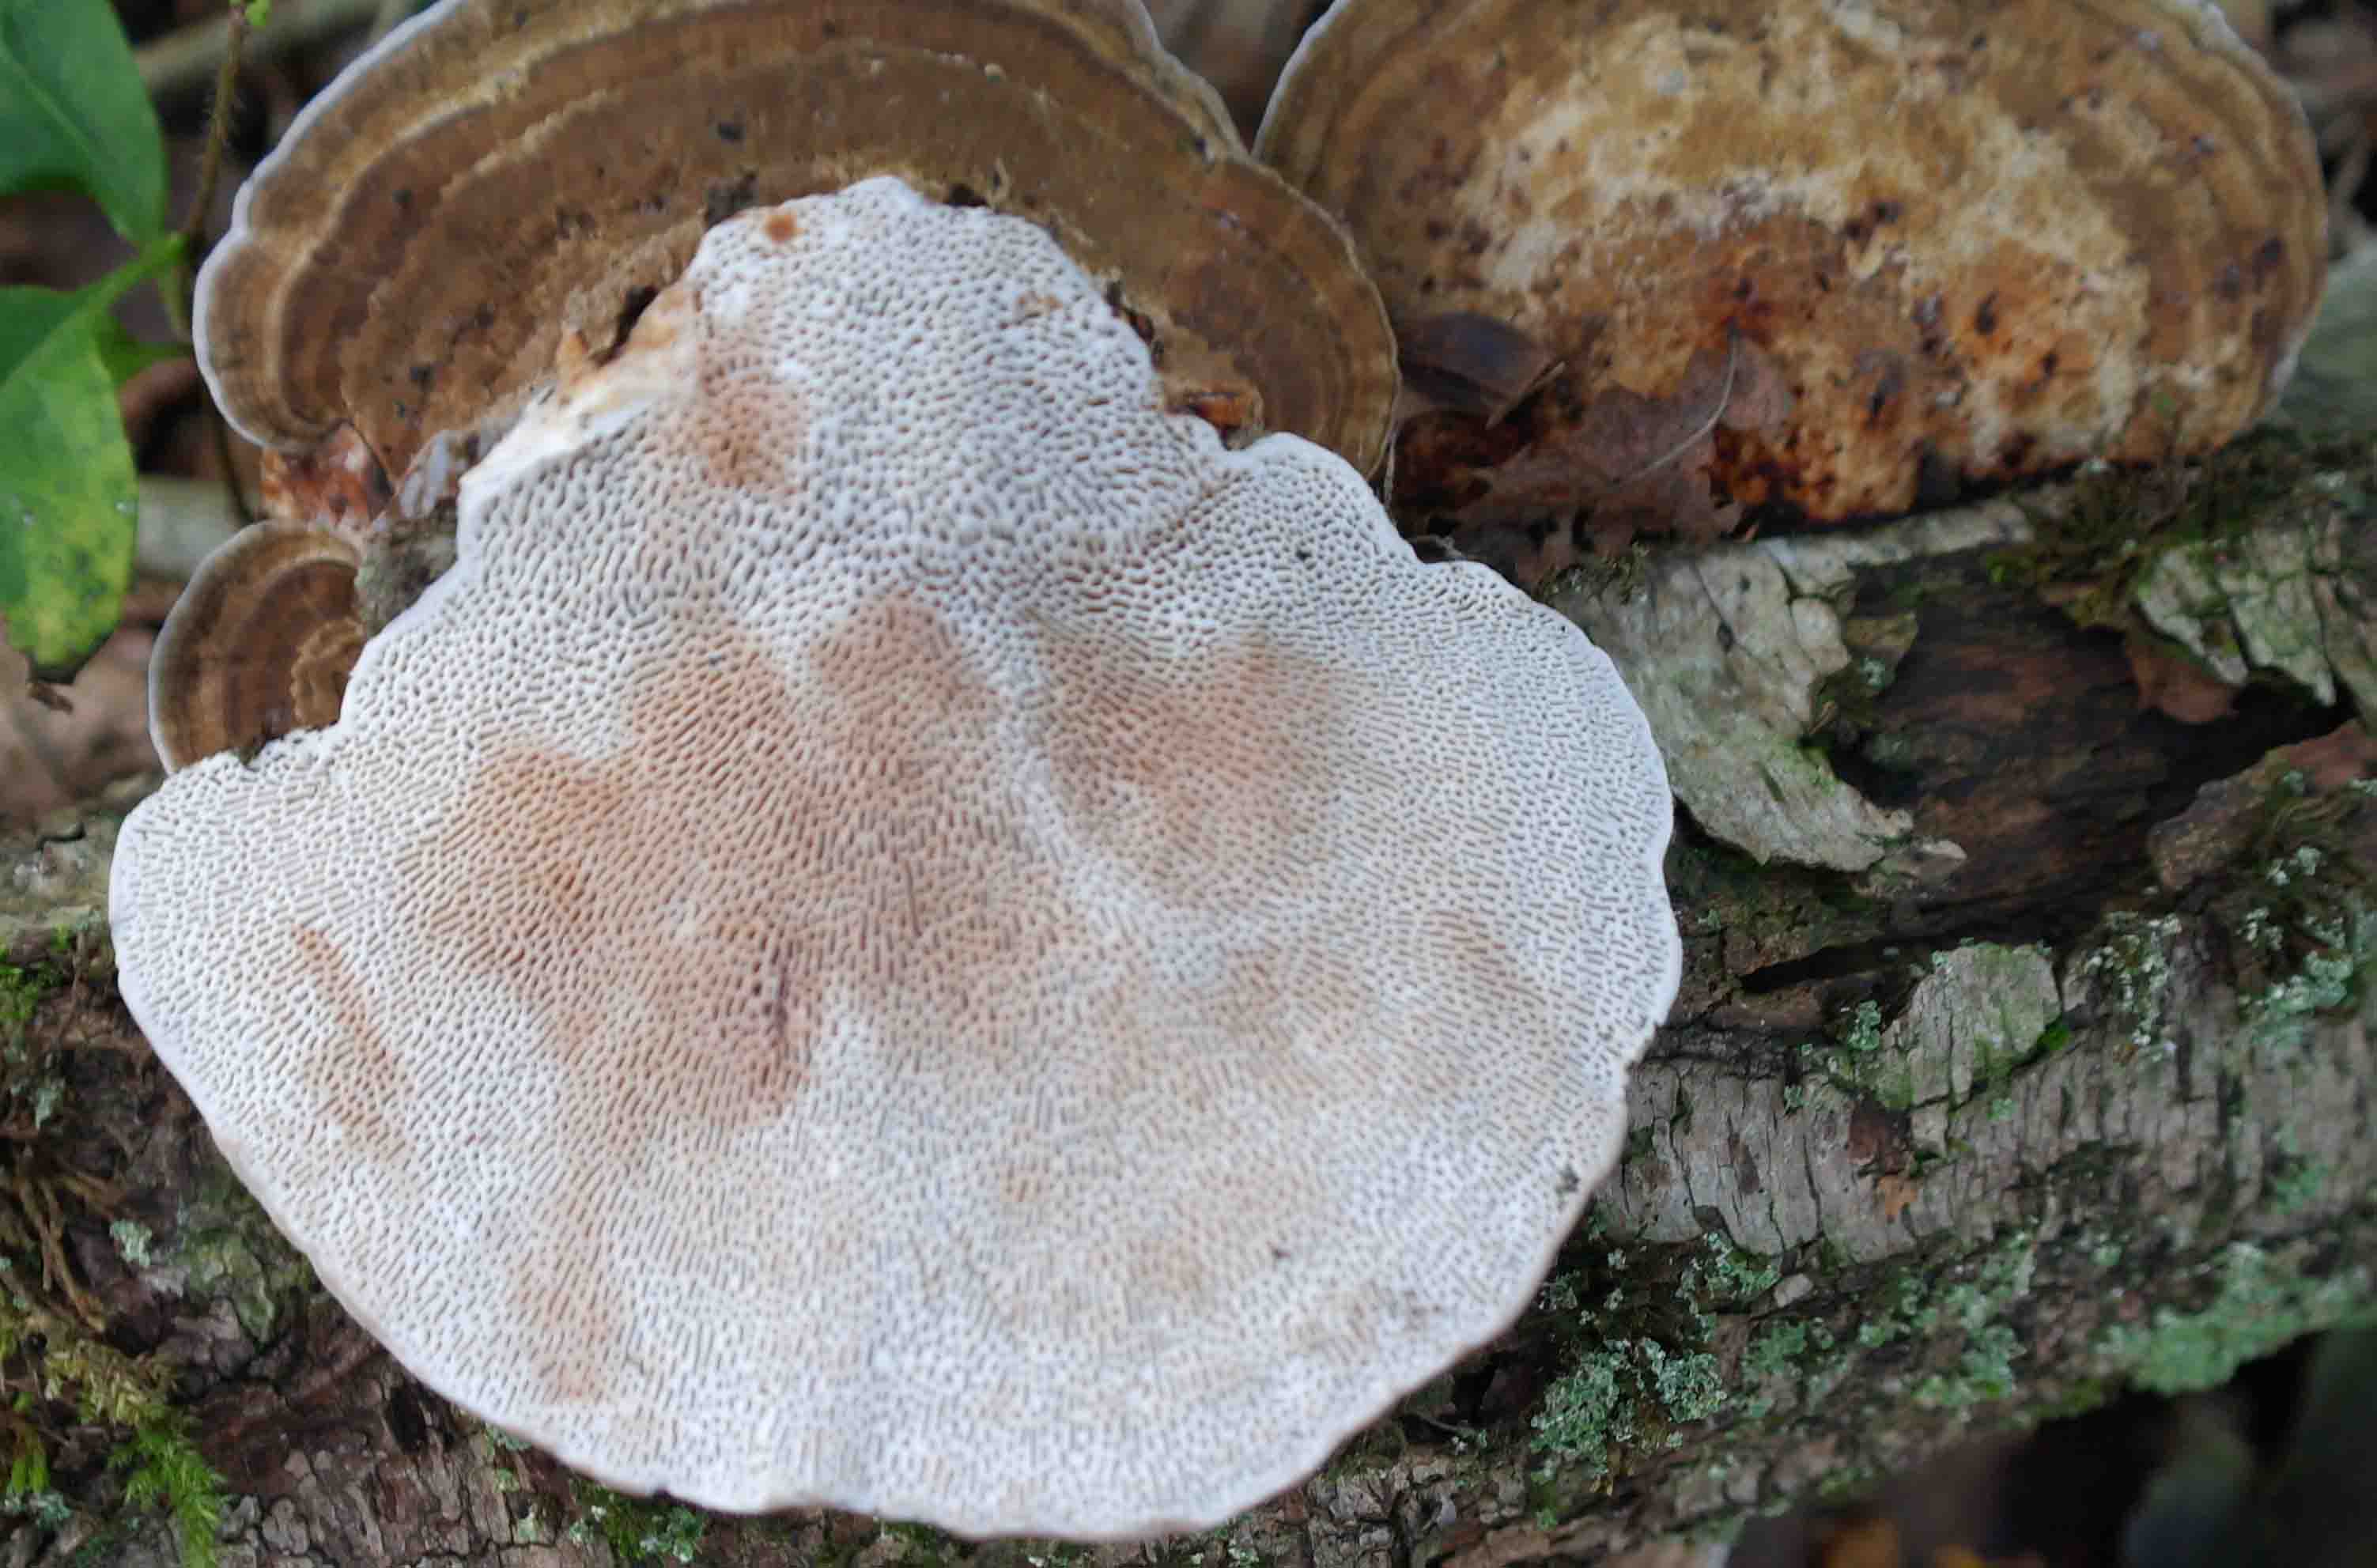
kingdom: Fungi
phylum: Basidiomycota
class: Agaricomycetes
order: Polyporales
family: Polyporaceae
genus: Daedaleopsis
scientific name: Daedaleopsis confragosa
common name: rødmende læderporesvamp
